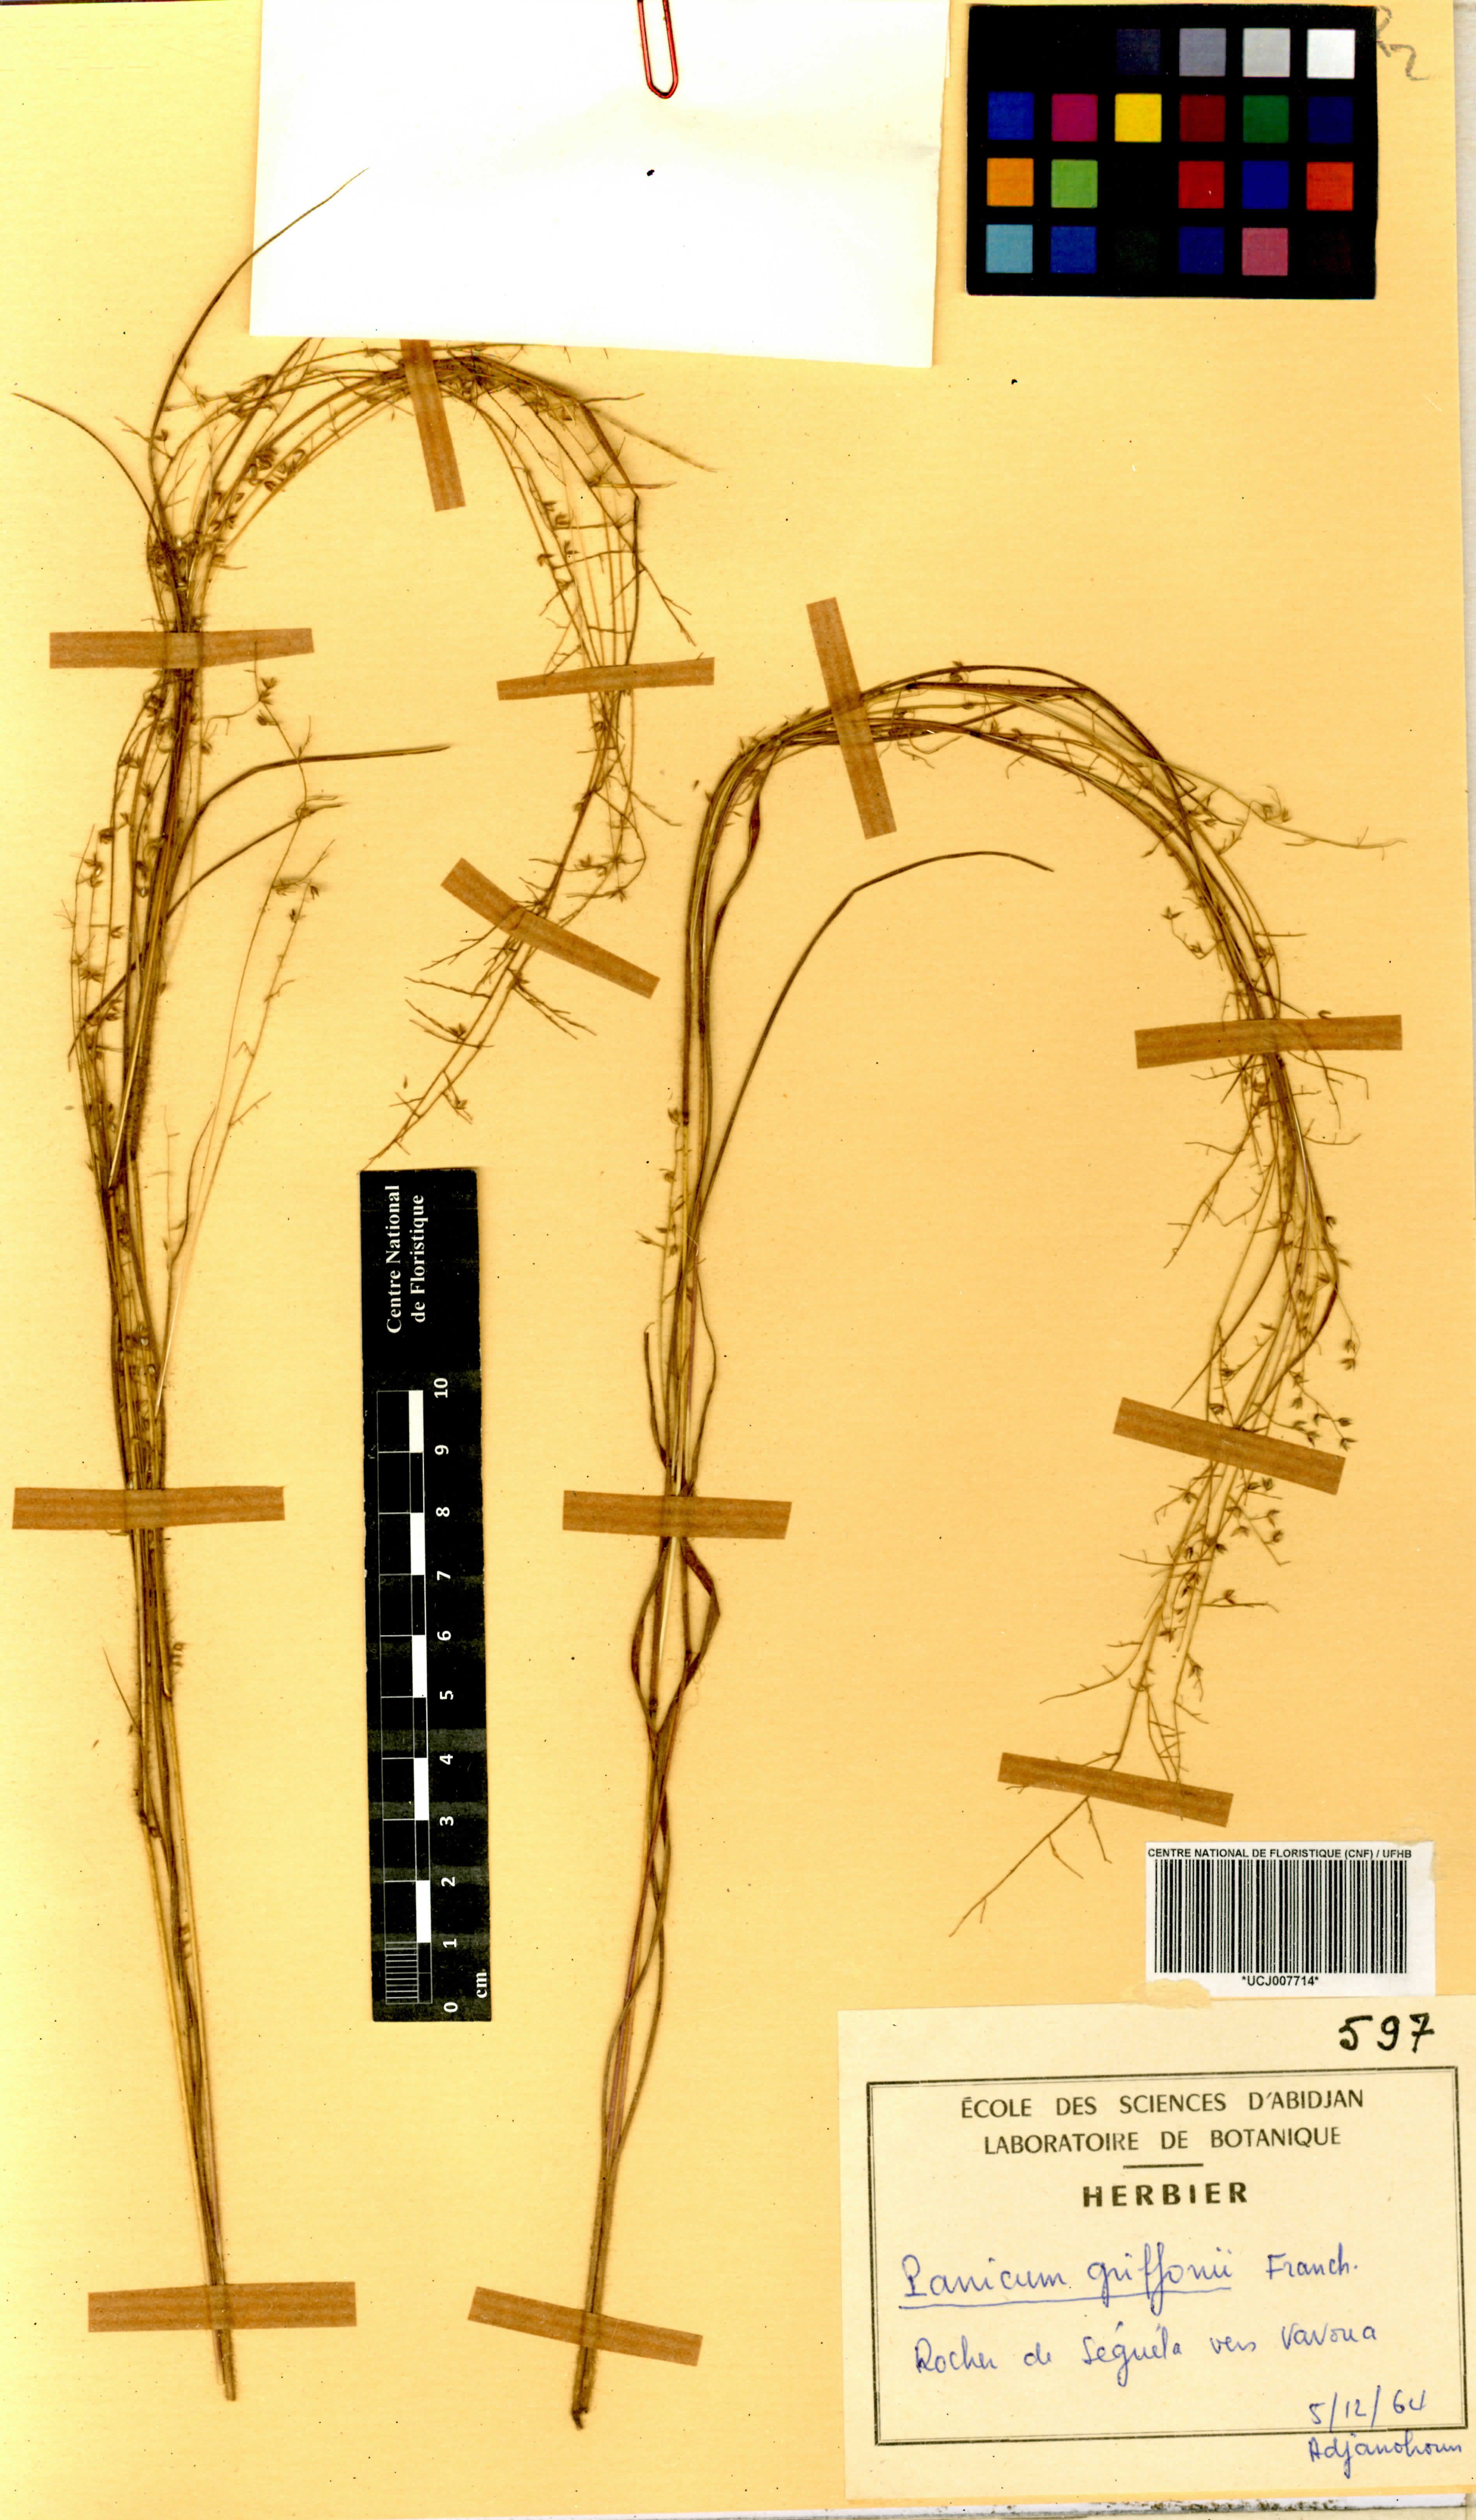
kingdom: Plantae
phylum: Tracheophyta
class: Liliopsida
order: Poales
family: Poaceae
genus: Panicum
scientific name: Panicum griffonii
